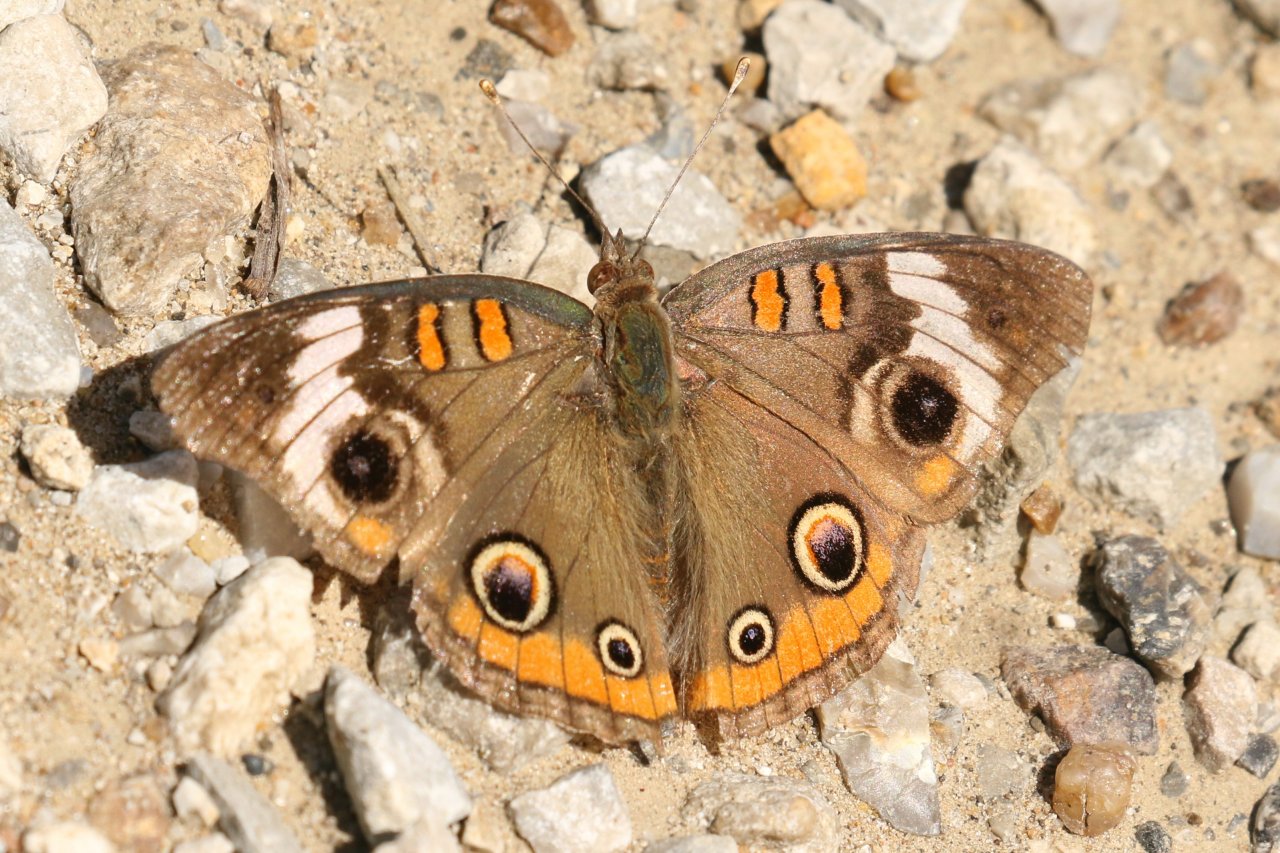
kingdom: Animalia
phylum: Arthropoda
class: Insecta
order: Lepidoptera
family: Nymphalidae
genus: Junonia
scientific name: Junonia coenia
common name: Common Buckeye
